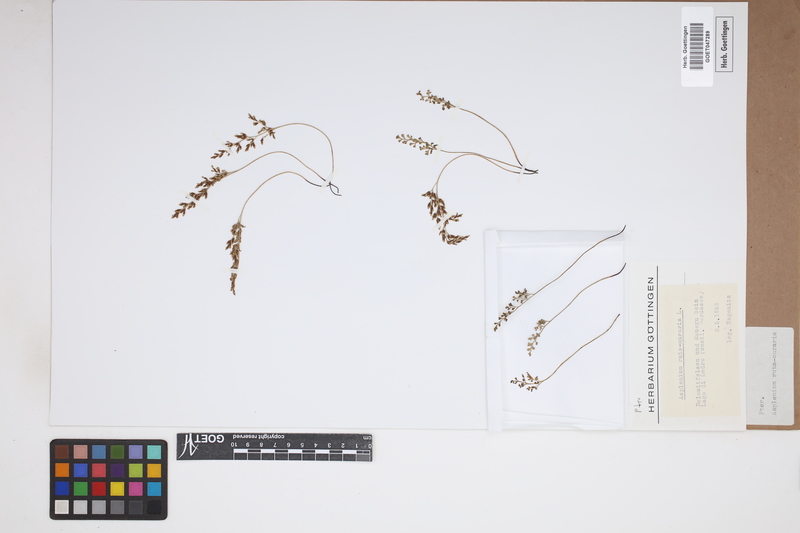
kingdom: Plantae
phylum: Tracheophyta
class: Polypodiopsida
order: Polypodiales
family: Aspleniaceae
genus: Asplenium
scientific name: Asplenium ruta-muraria
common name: Wall-rue
